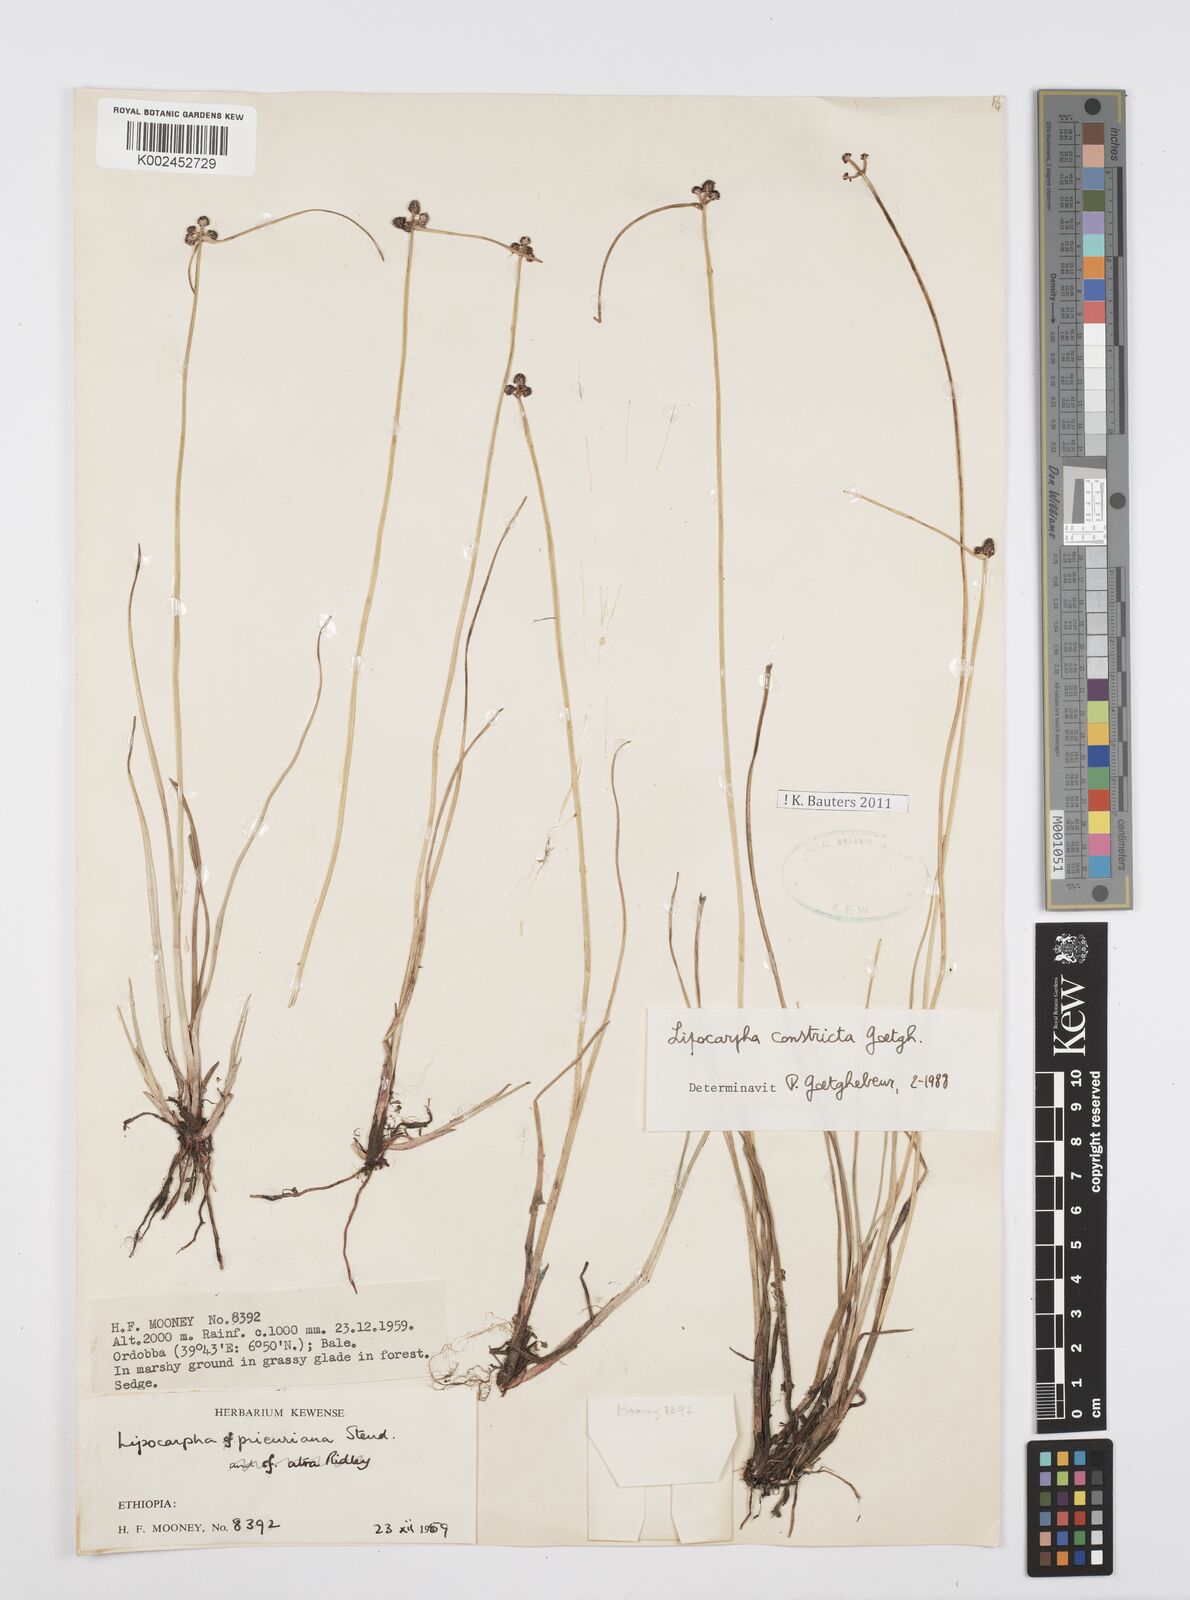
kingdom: Plantae
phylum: Tracheophyta
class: Liliopsida
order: Poales
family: Cyperaceae
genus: Cyperus
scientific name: Cyperus constrictus
